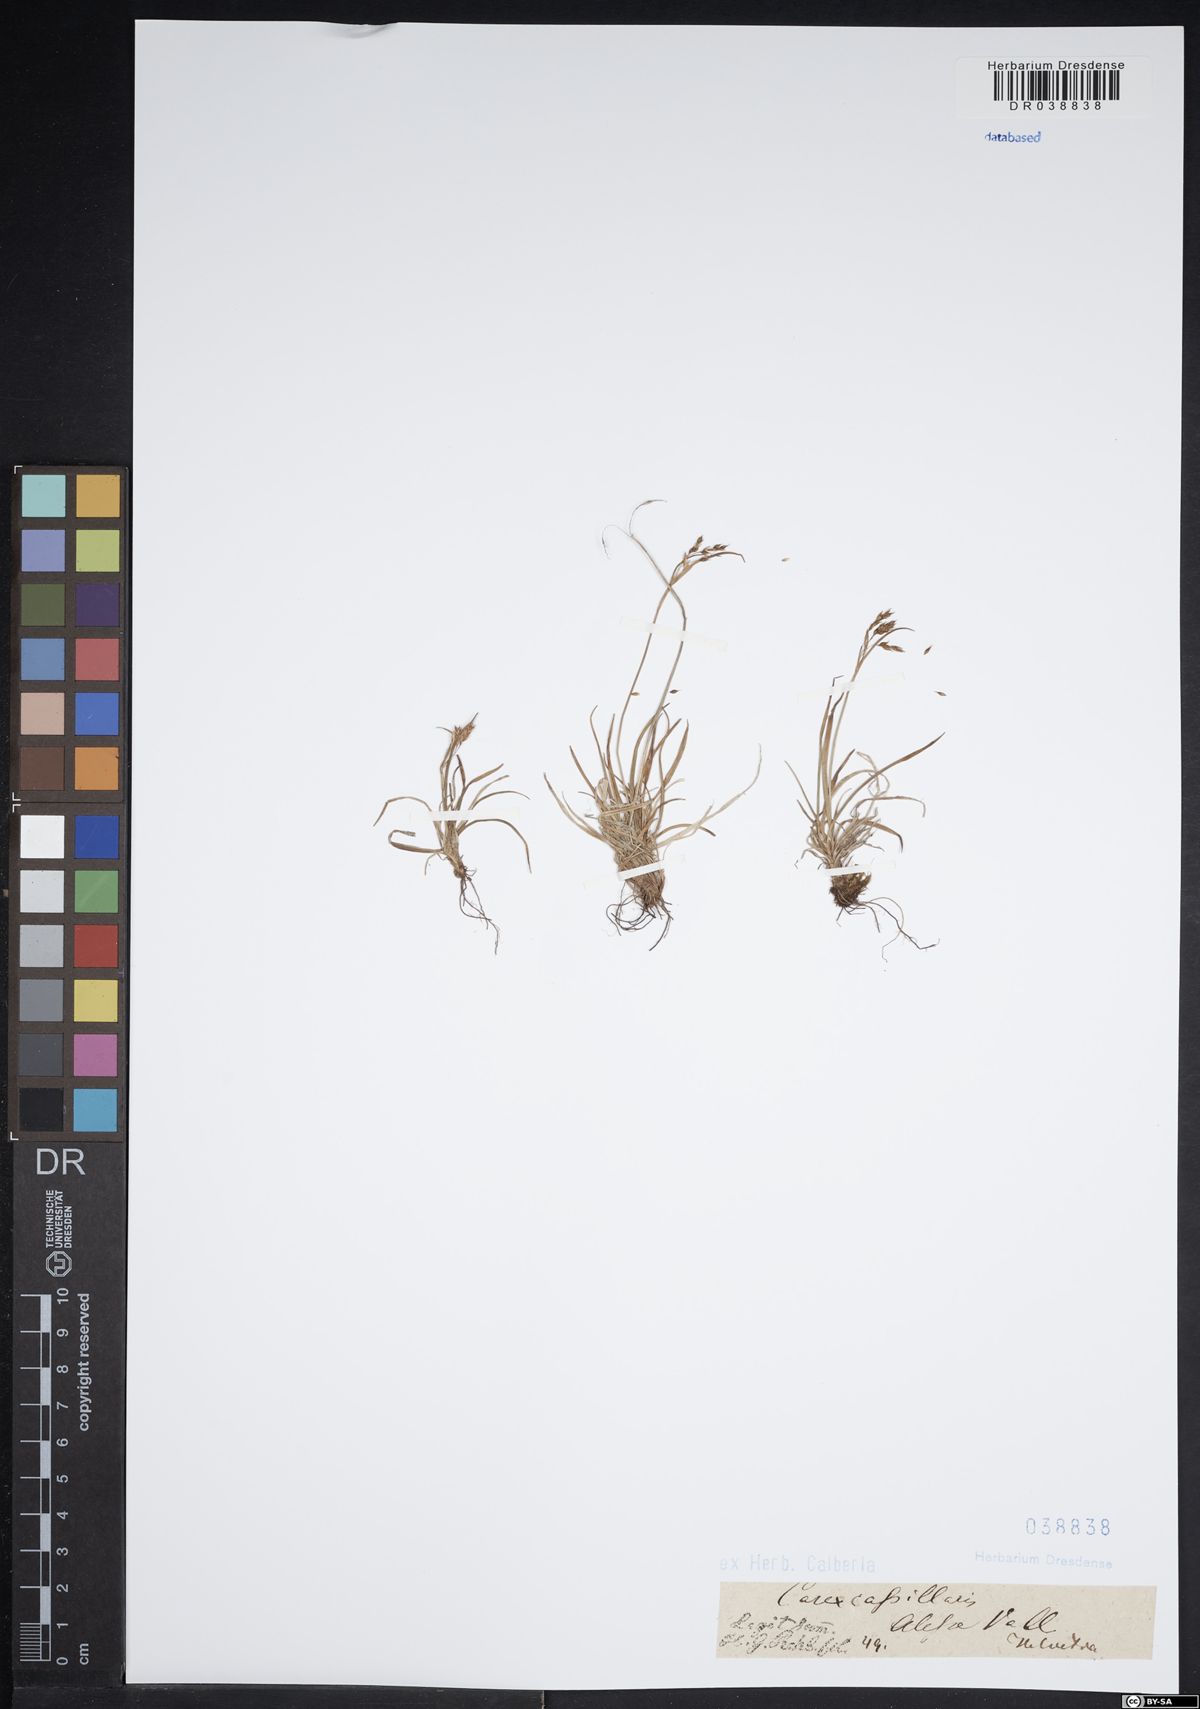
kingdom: Plantae
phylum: Tracheophyta
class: Liliopsida
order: Poales
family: Cyperaceae
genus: Carex
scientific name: Carex capillaris
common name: Hair sedge
